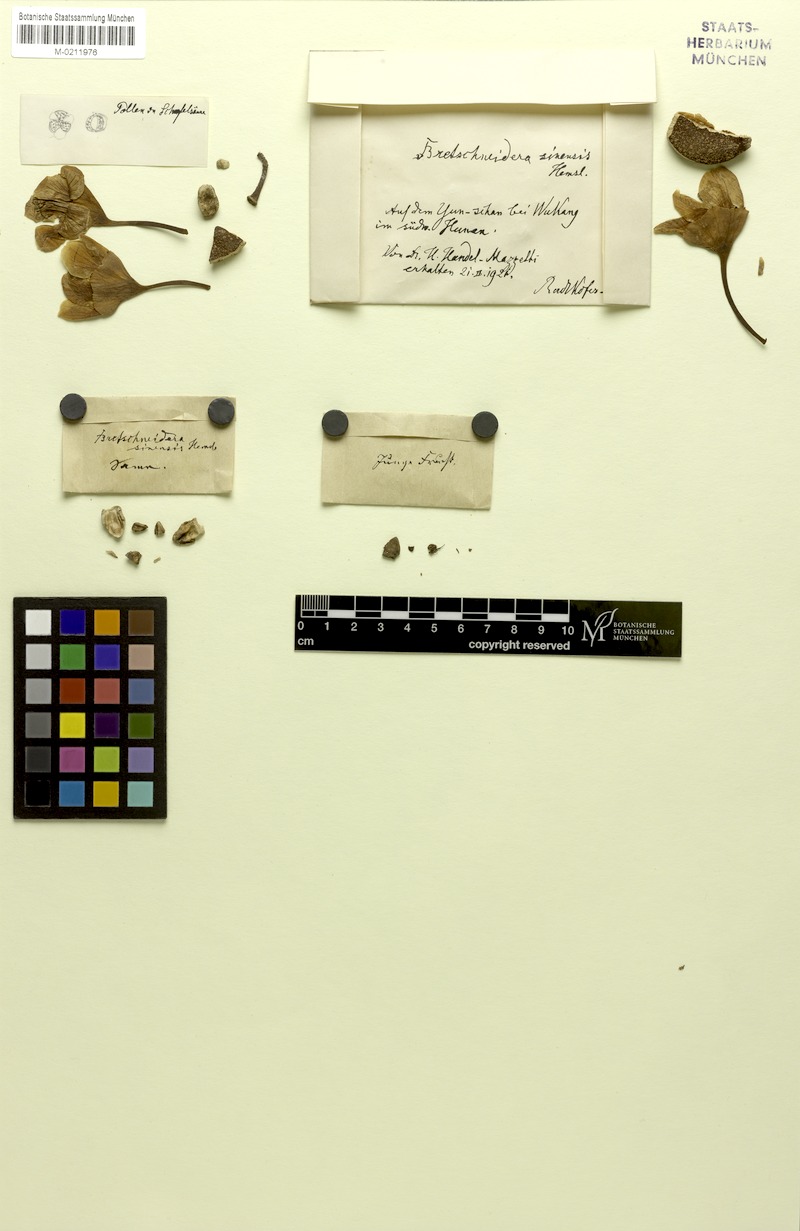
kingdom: Plantae
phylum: Tracheophyta
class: Magnoliopsida
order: Brassicales
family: Akaniaceae
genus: Bretschneidera
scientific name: Bretschneidera sinensis
